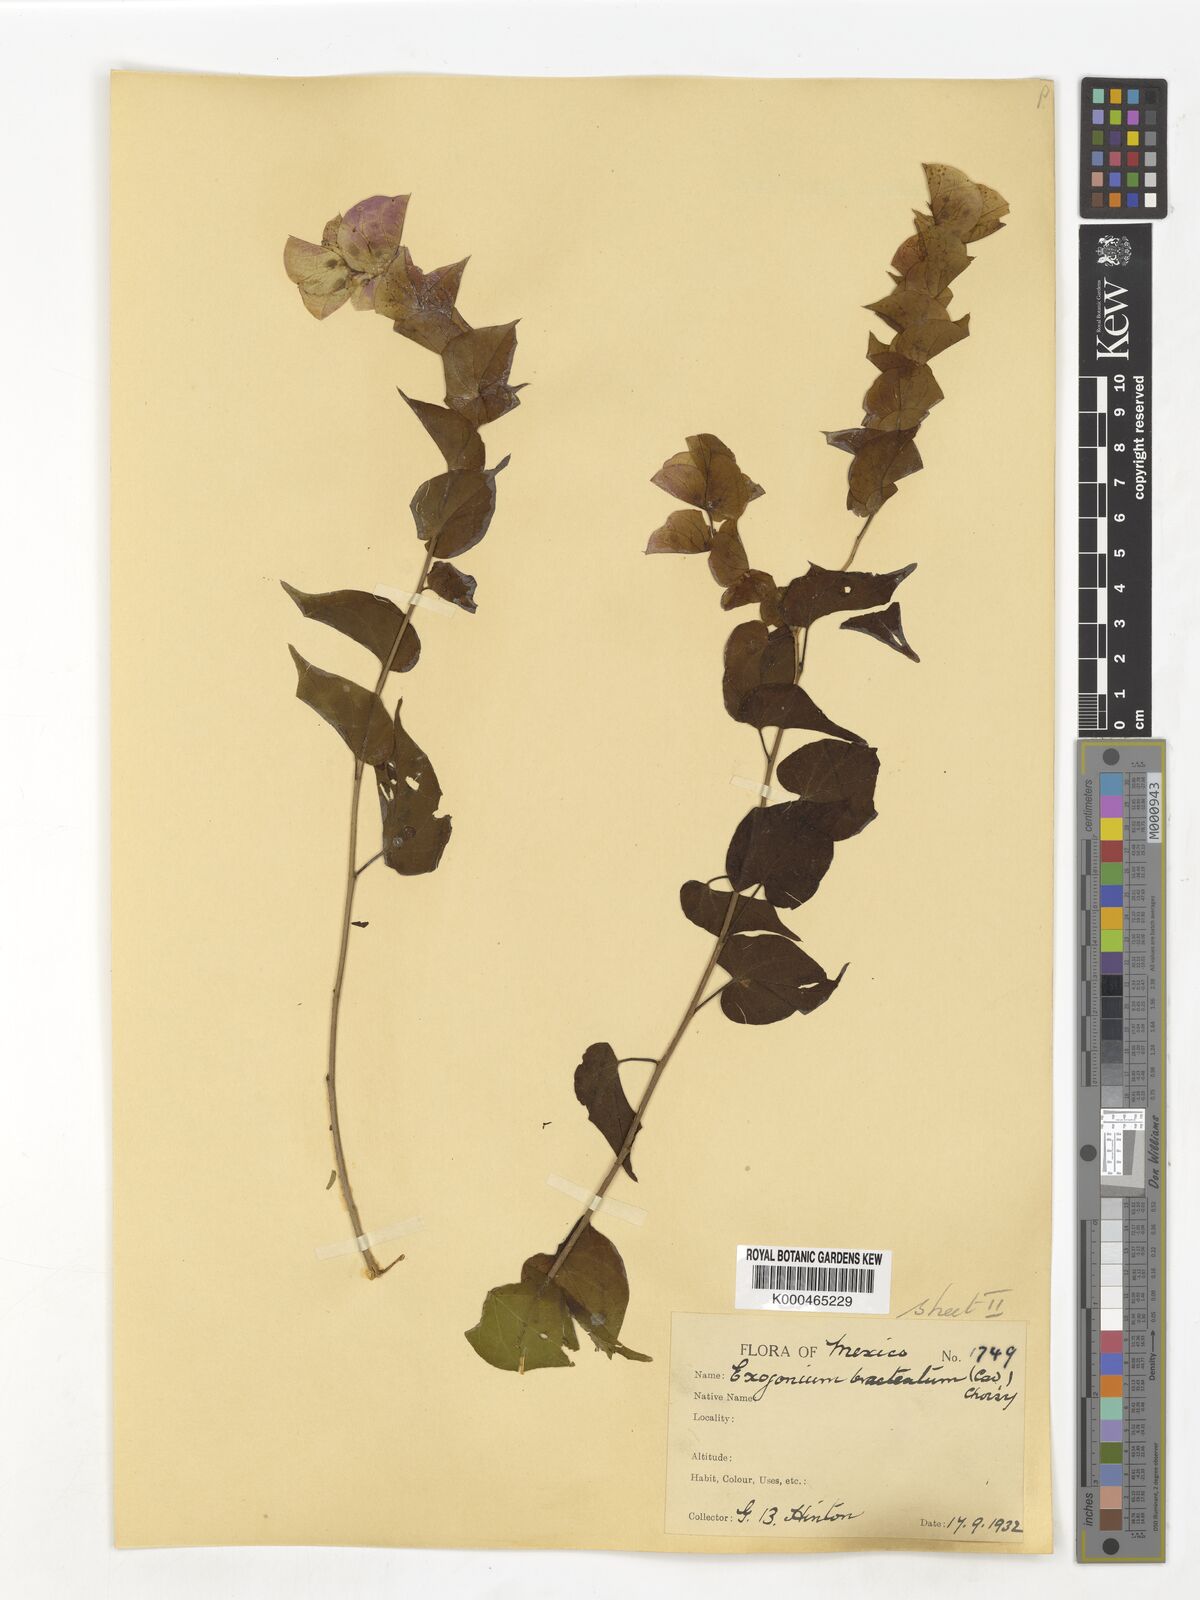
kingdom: Plantae
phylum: Tracheophyta
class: Magnoliopsida
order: Solanales
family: Convolvulaceae
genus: Ipomoea
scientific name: Ipomoea bracteata
